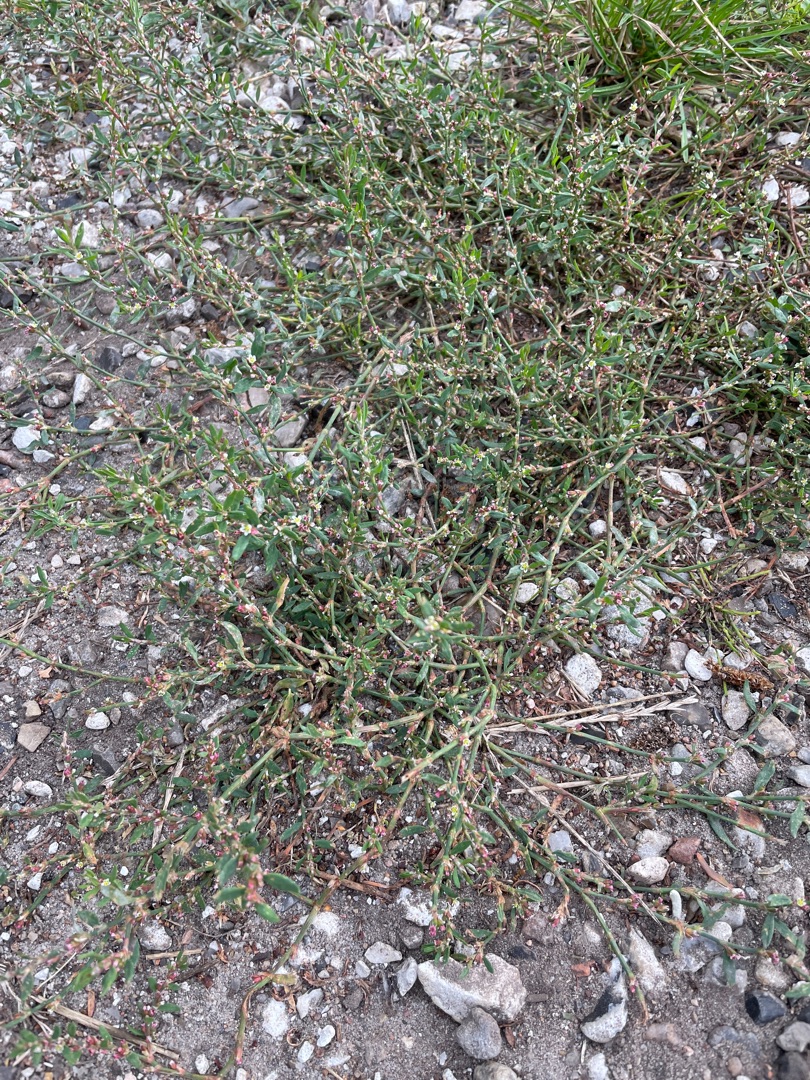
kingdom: Plantae
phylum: Tracheophyta
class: Magnoliopsida
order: Caryophyllales
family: Polygonaceae
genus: Polygonum
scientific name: Polygonum arenastrum
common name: Liggende vej-pileurt
